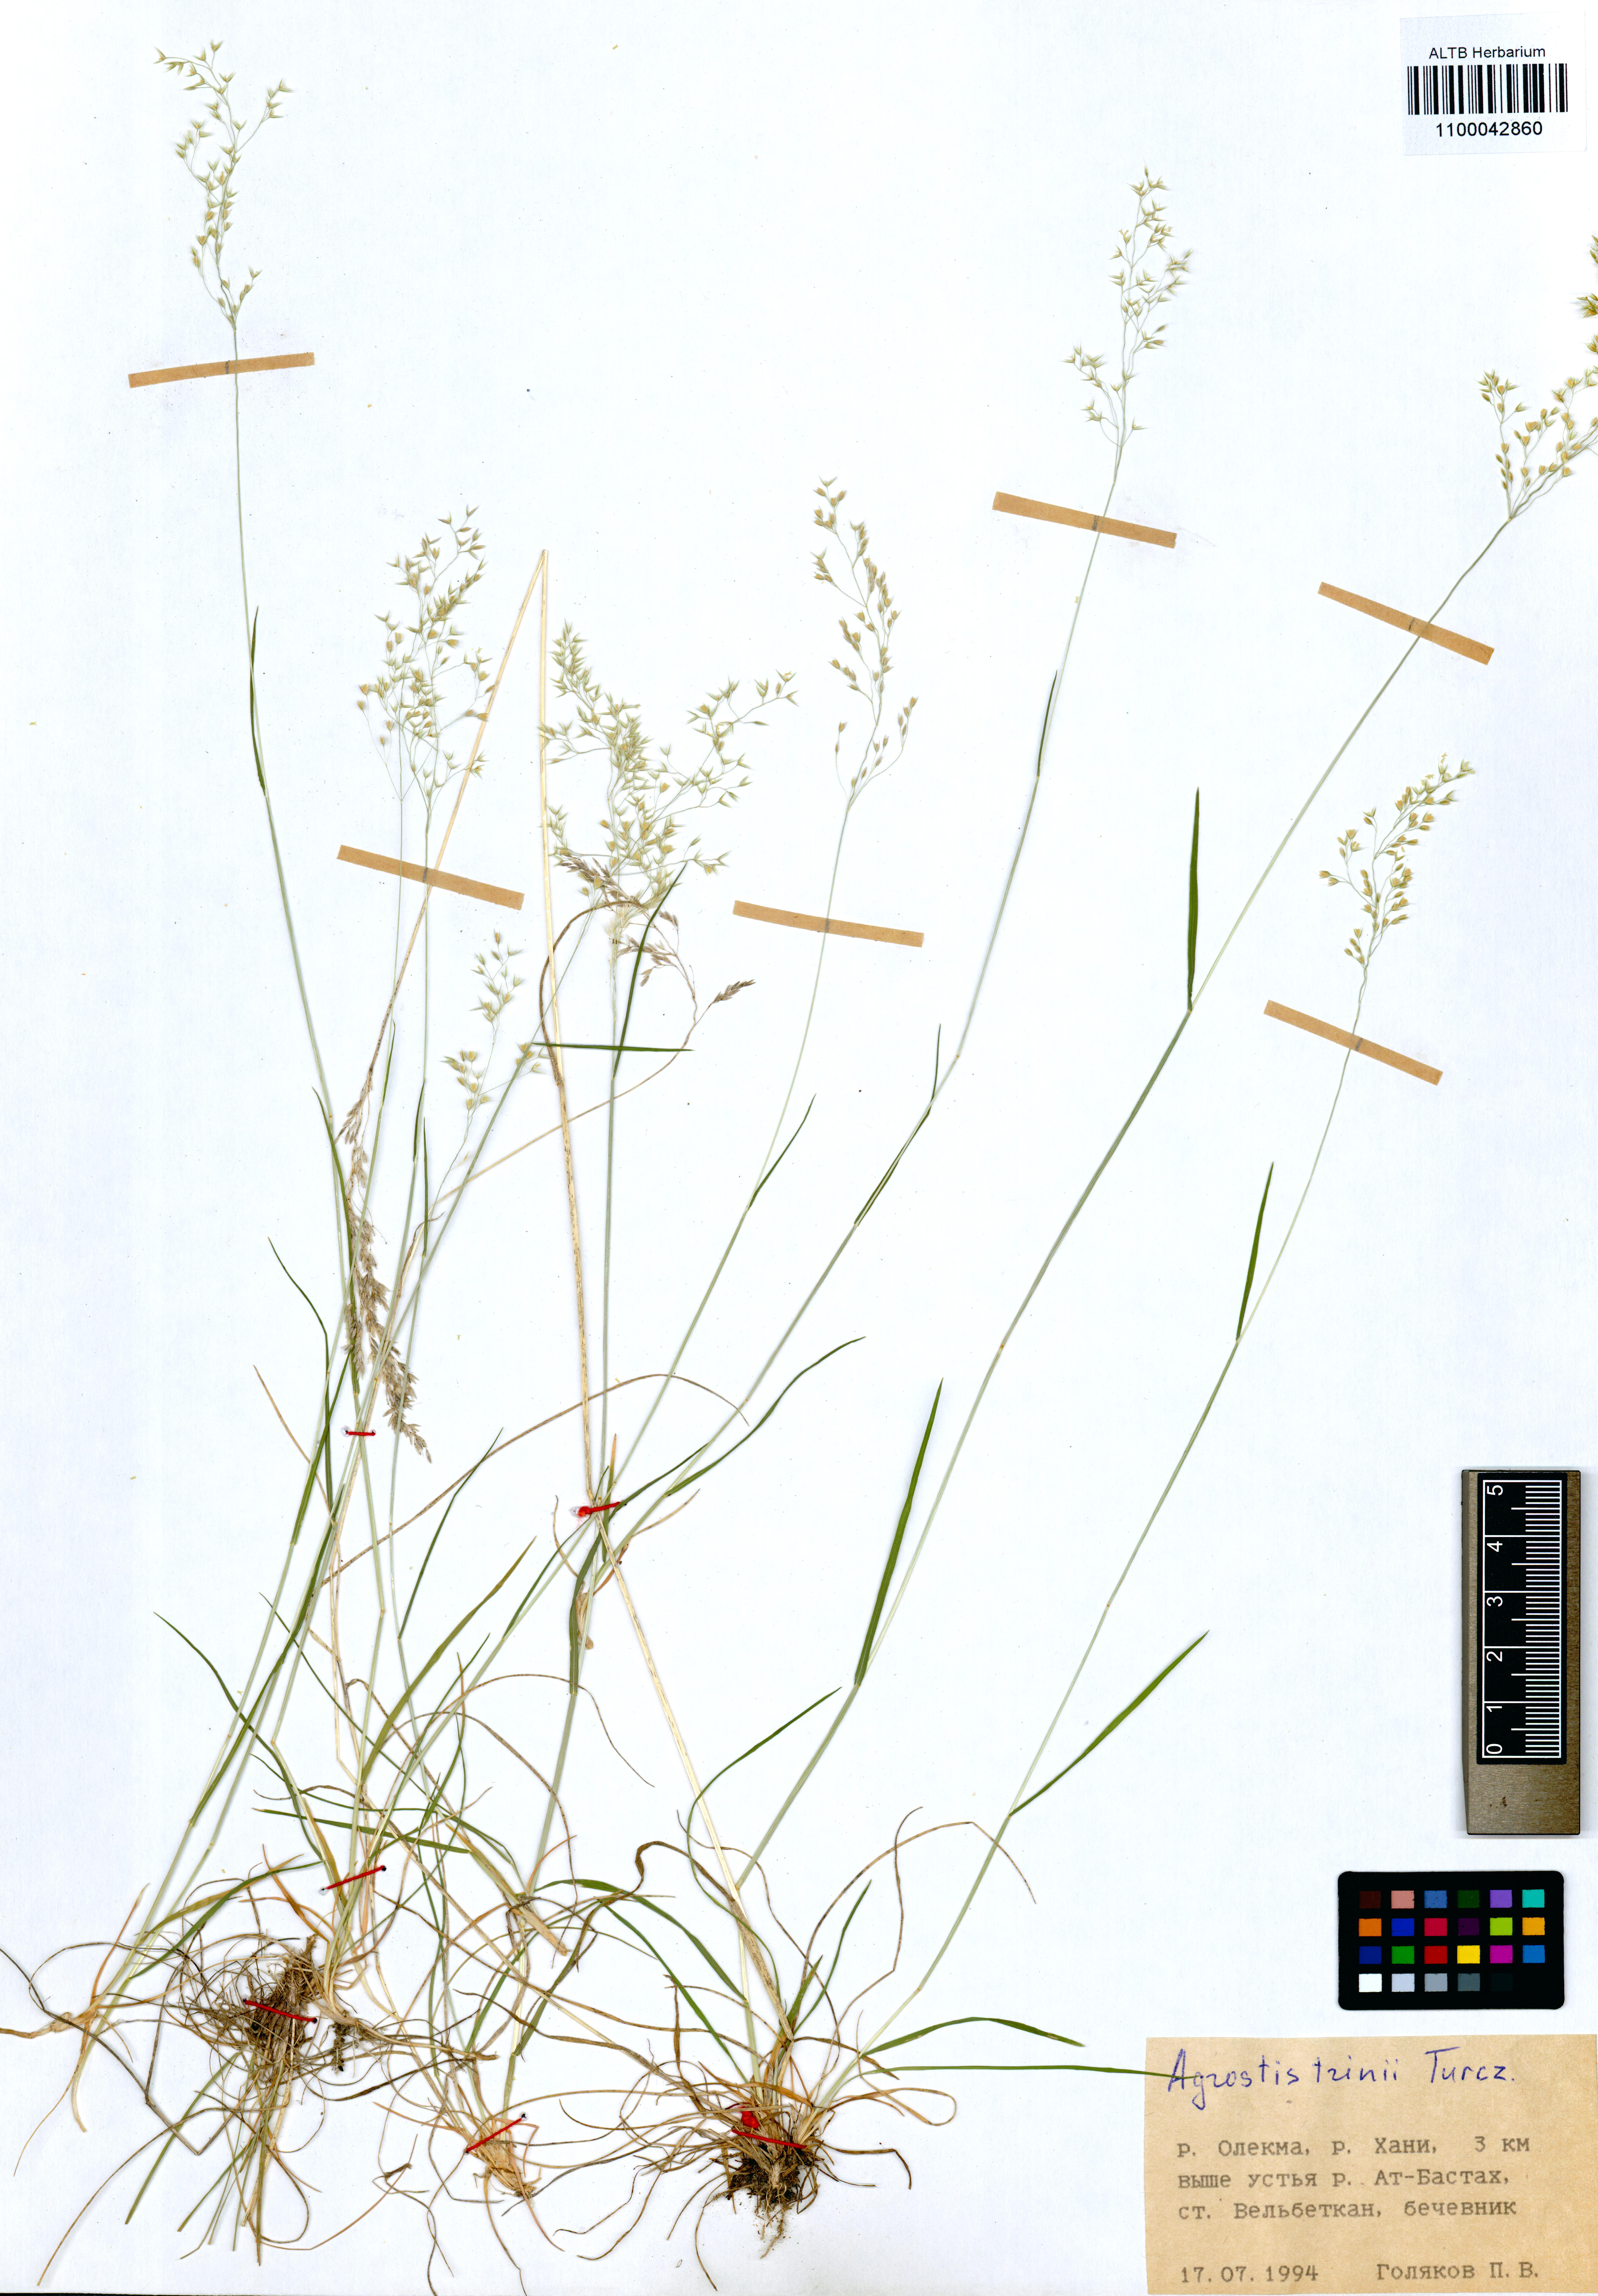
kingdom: Plantae
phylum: Tracheophyta
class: Liliopsida
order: Poales
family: Poaceae
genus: Agrostis
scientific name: Agrostis vinealis
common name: Brown bent
